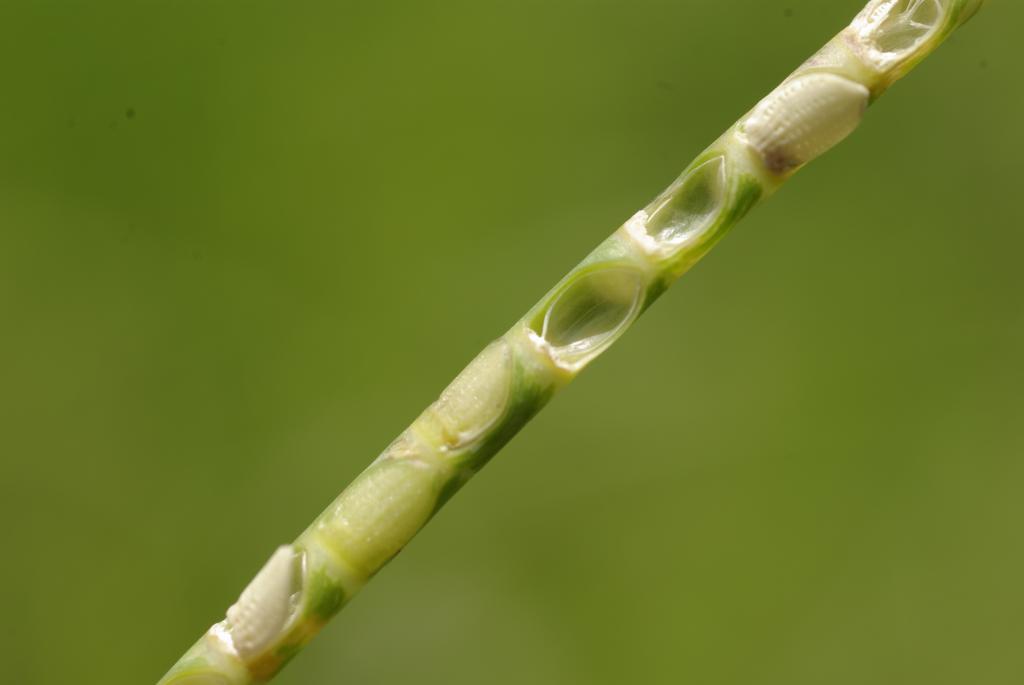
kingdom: Plantae
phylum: Tracheophyta
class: Liliopsida
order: Poales
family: Poaceae
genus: Mnesithea
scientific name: Mnesithea laevis
